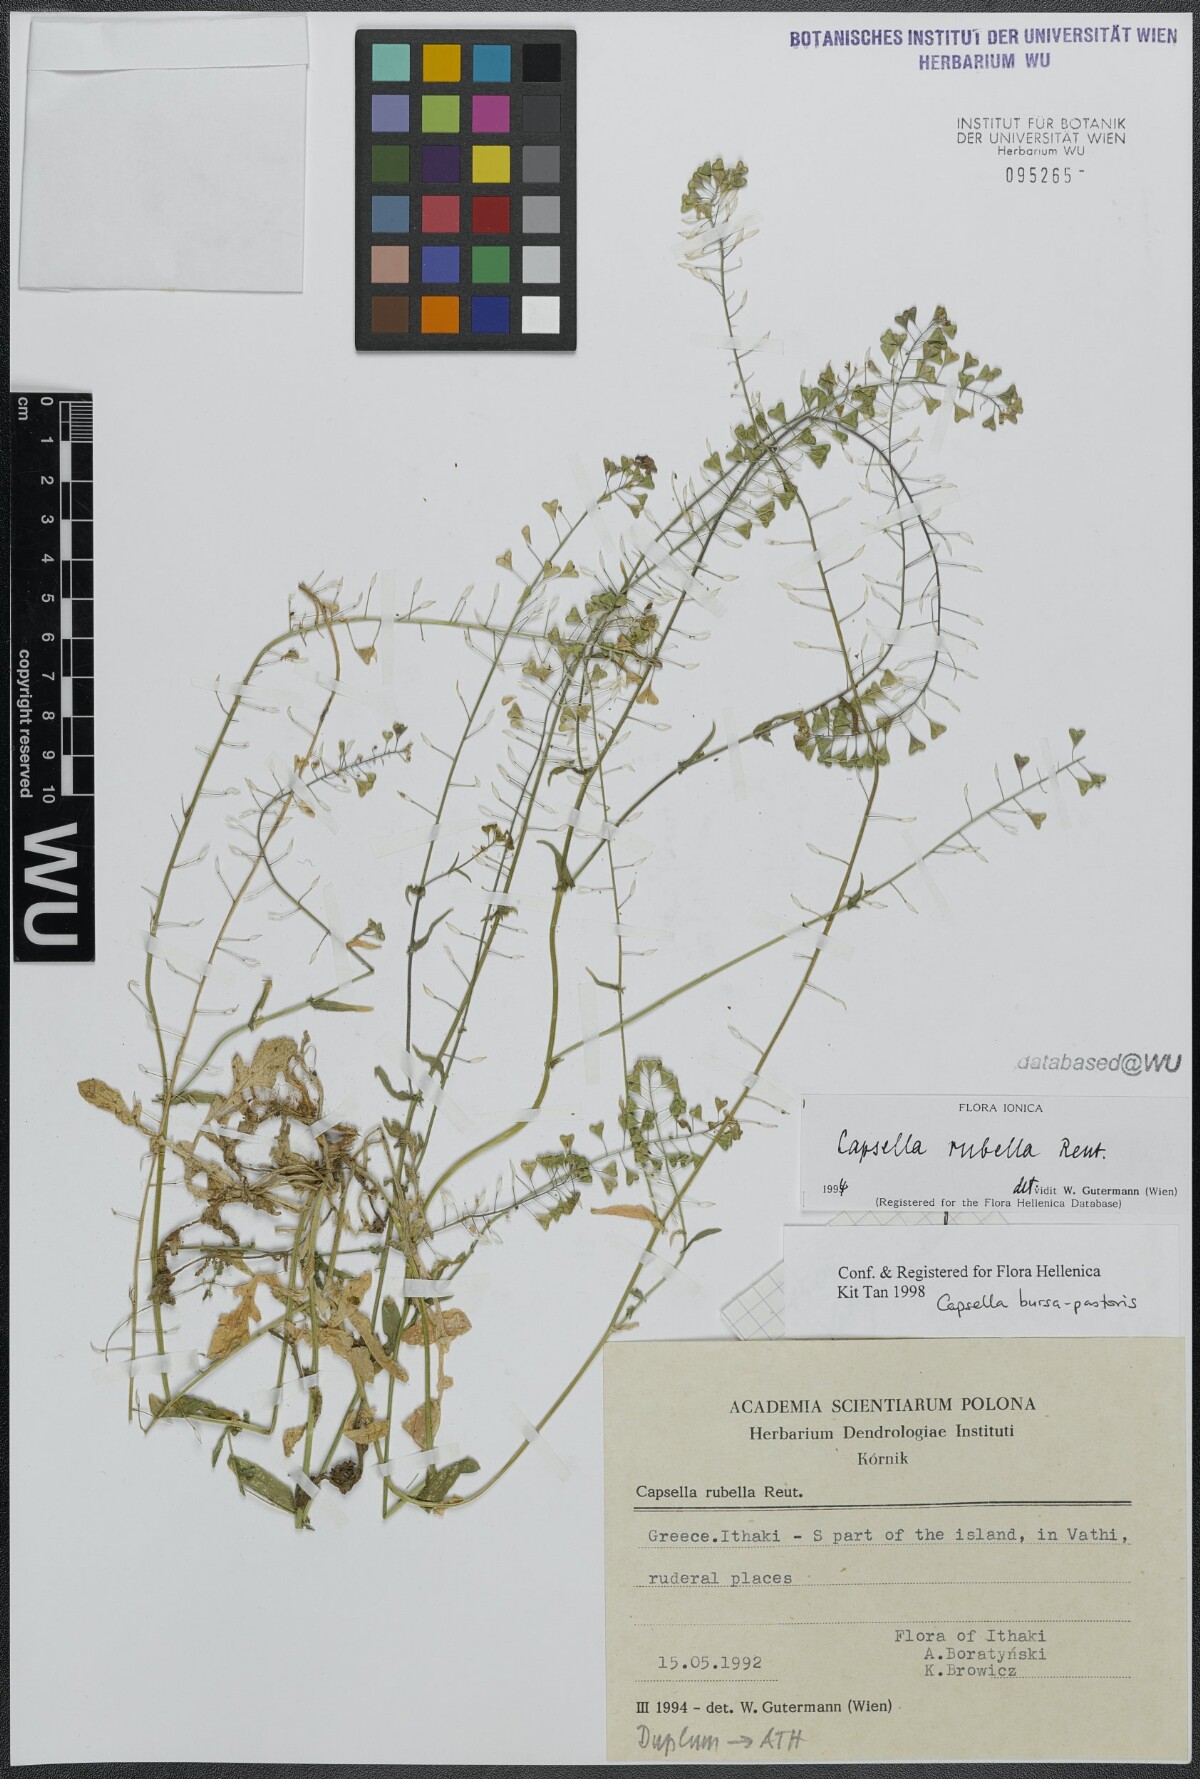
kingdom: Plantae
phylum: Tracheophyta
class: Magnoliopsida
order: Brassicales
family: Brassicaceae
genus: Capsella
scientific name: Capsella rubella
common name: Pink shepherd's-purse
